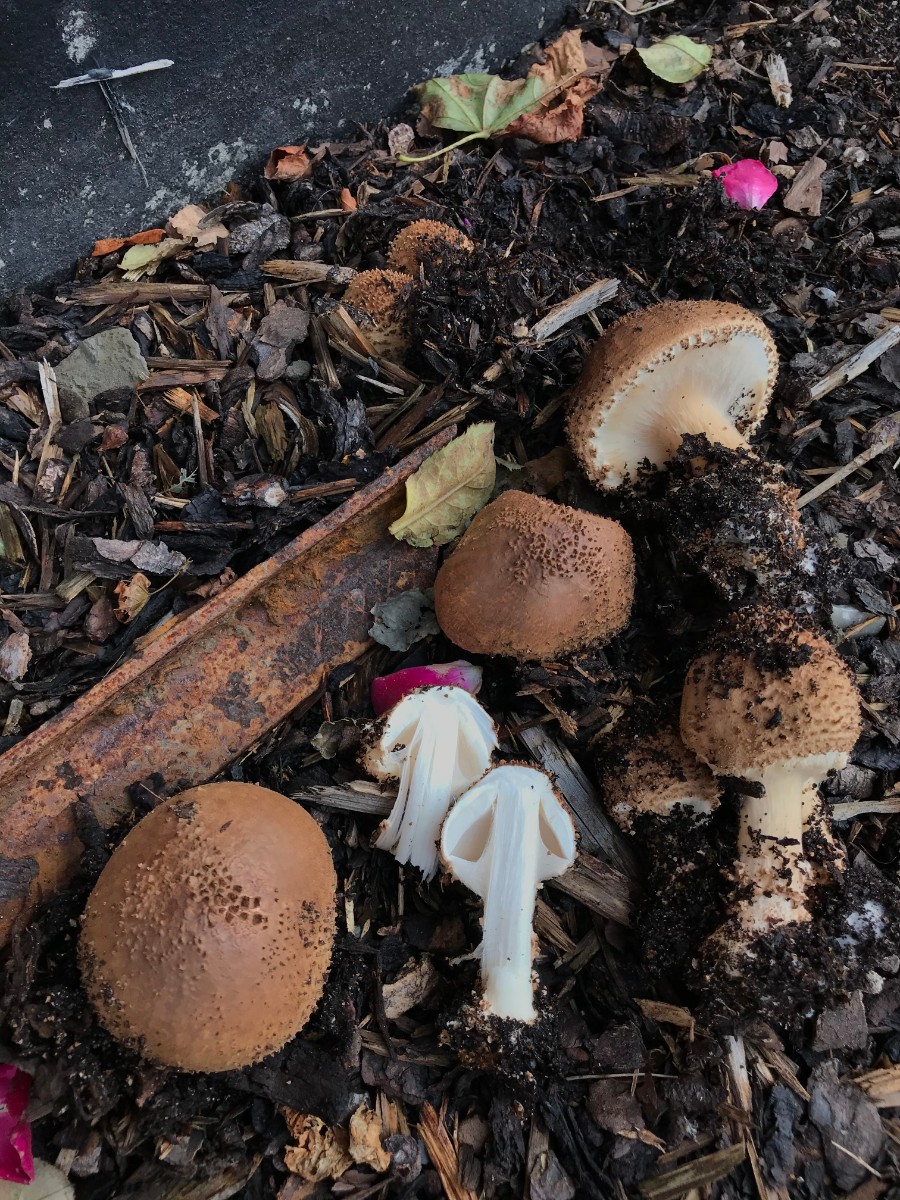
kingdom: Fungi
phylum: Basidiomycota
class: Agaricomycetes
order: Agaricales
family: Agaricaceae
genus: Echinoderma
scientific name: Echinoderma asperum
